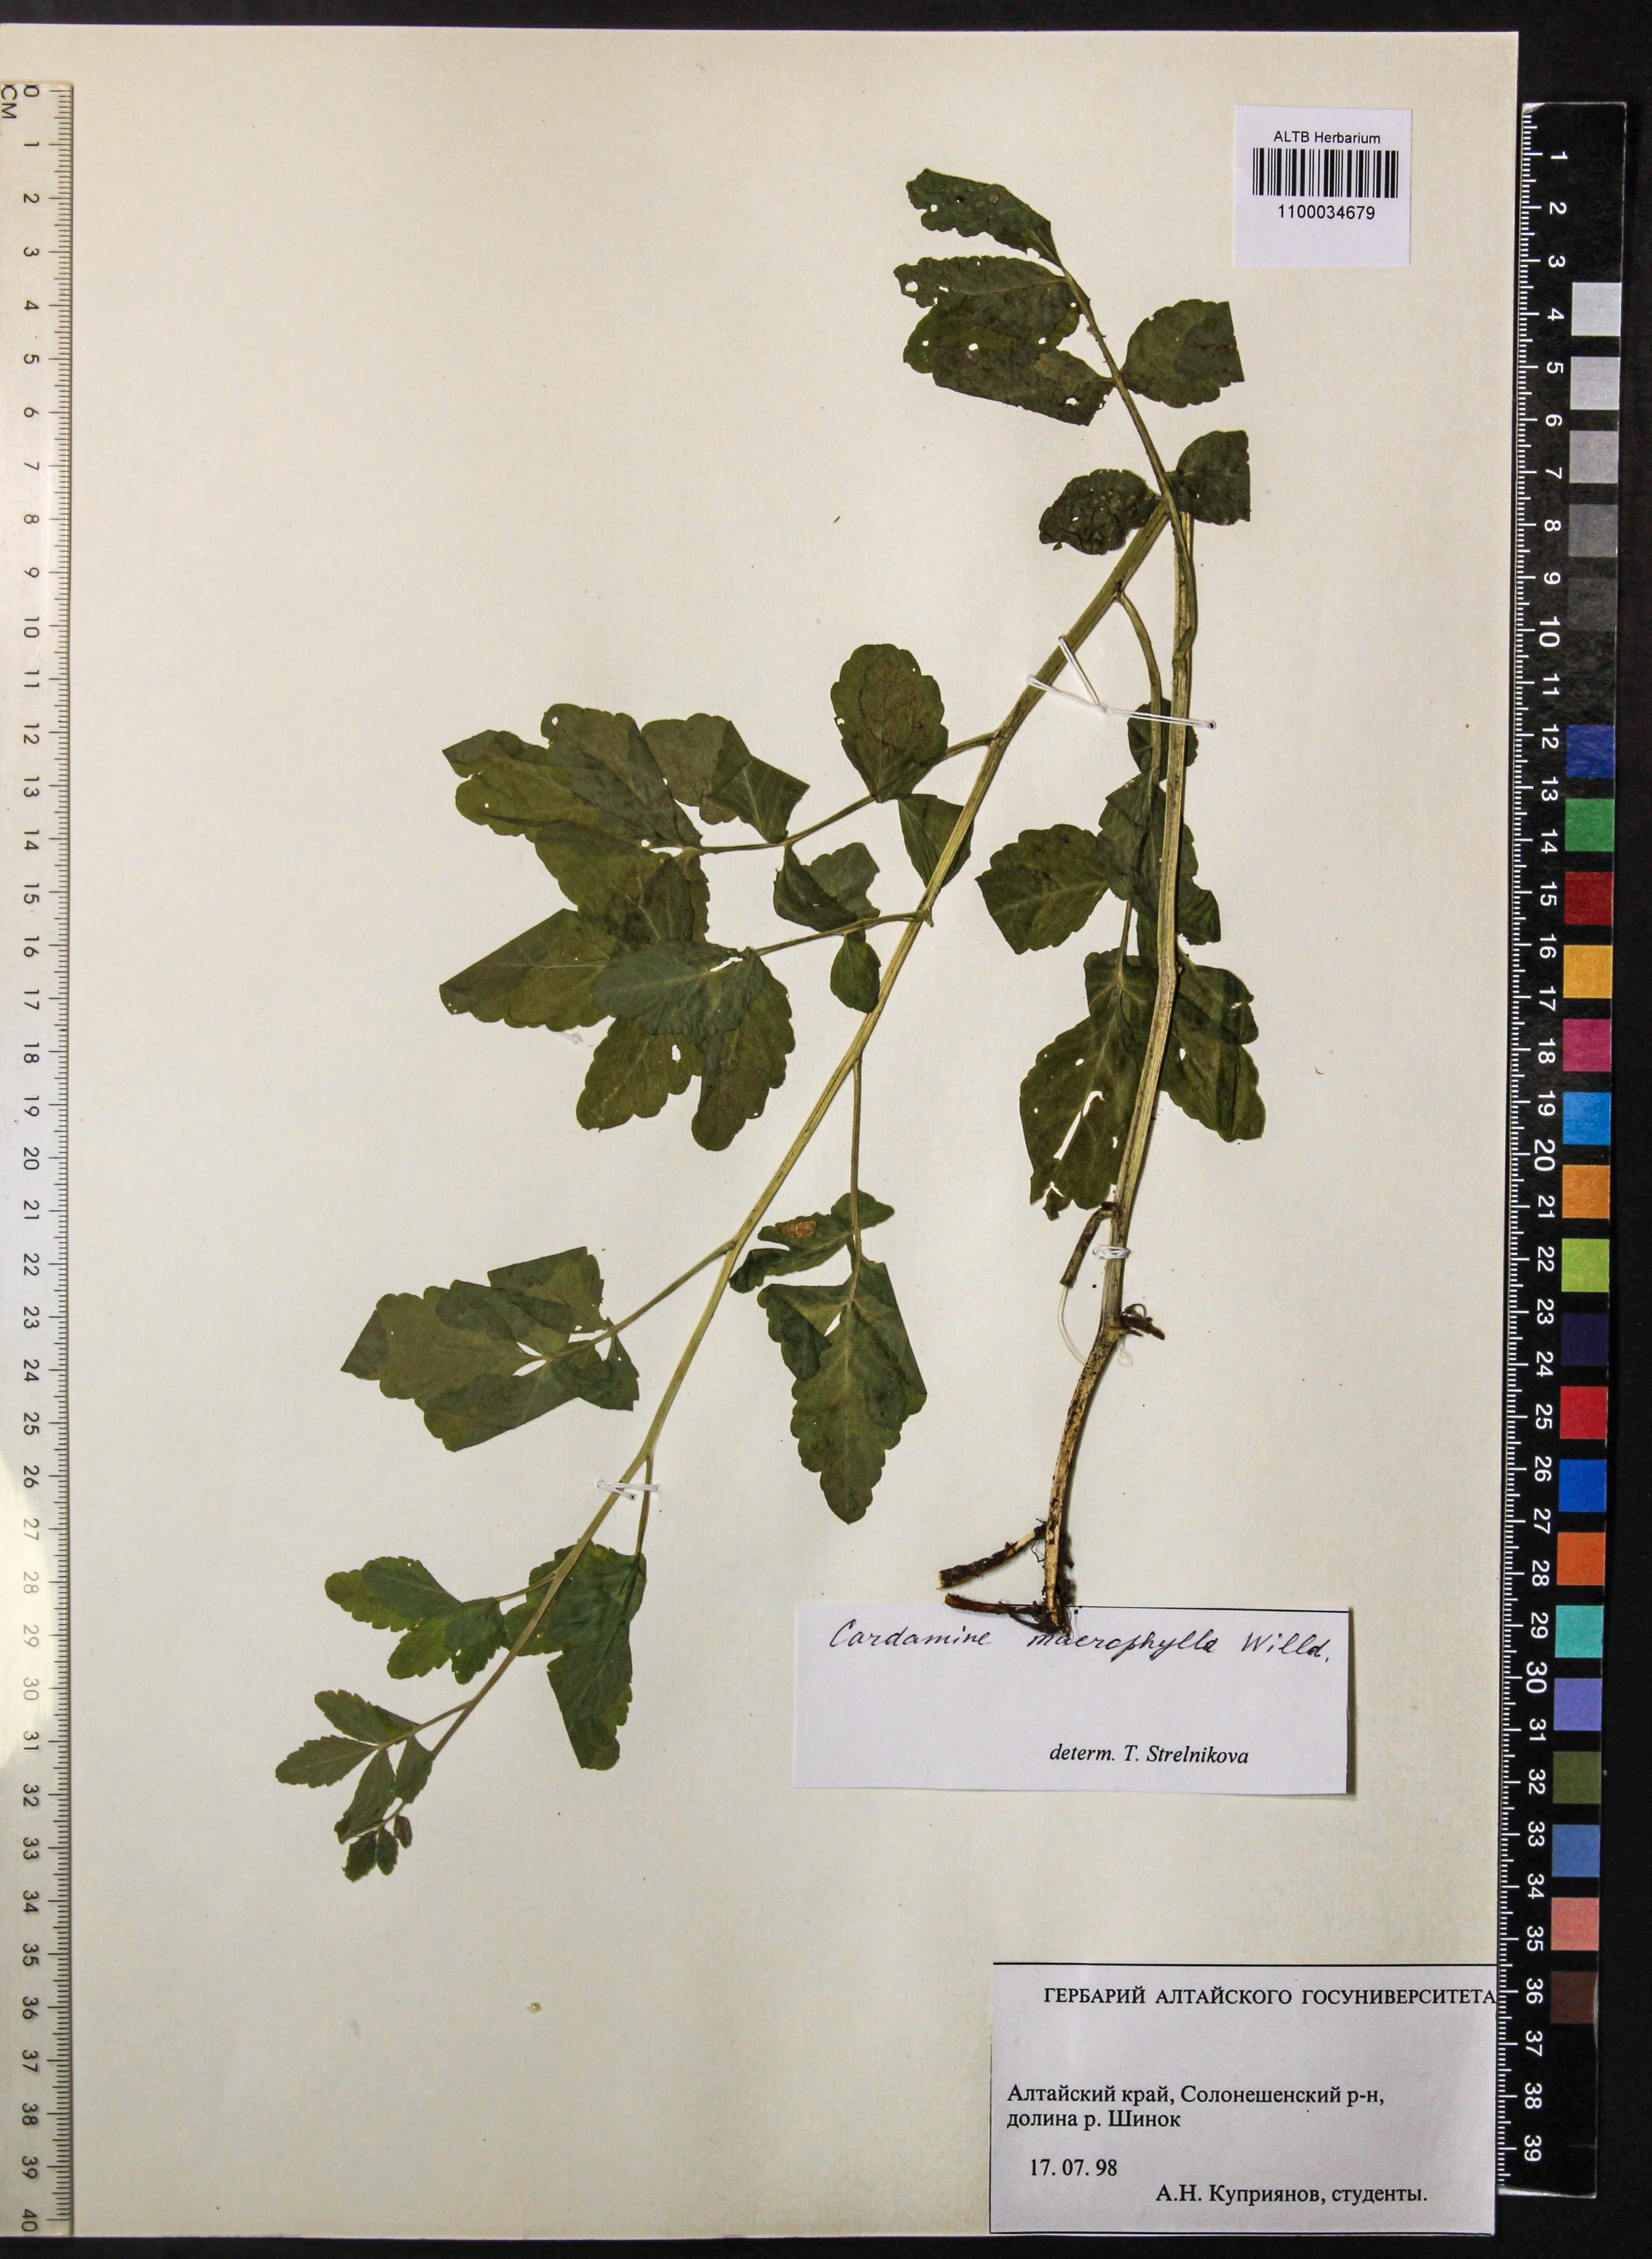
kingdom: Plantae
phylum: Tracheophyta
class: Magnoliopsida
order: Brassicales
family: Brassicaceae
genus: Cardamine
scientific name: Cardamine macrophylla
